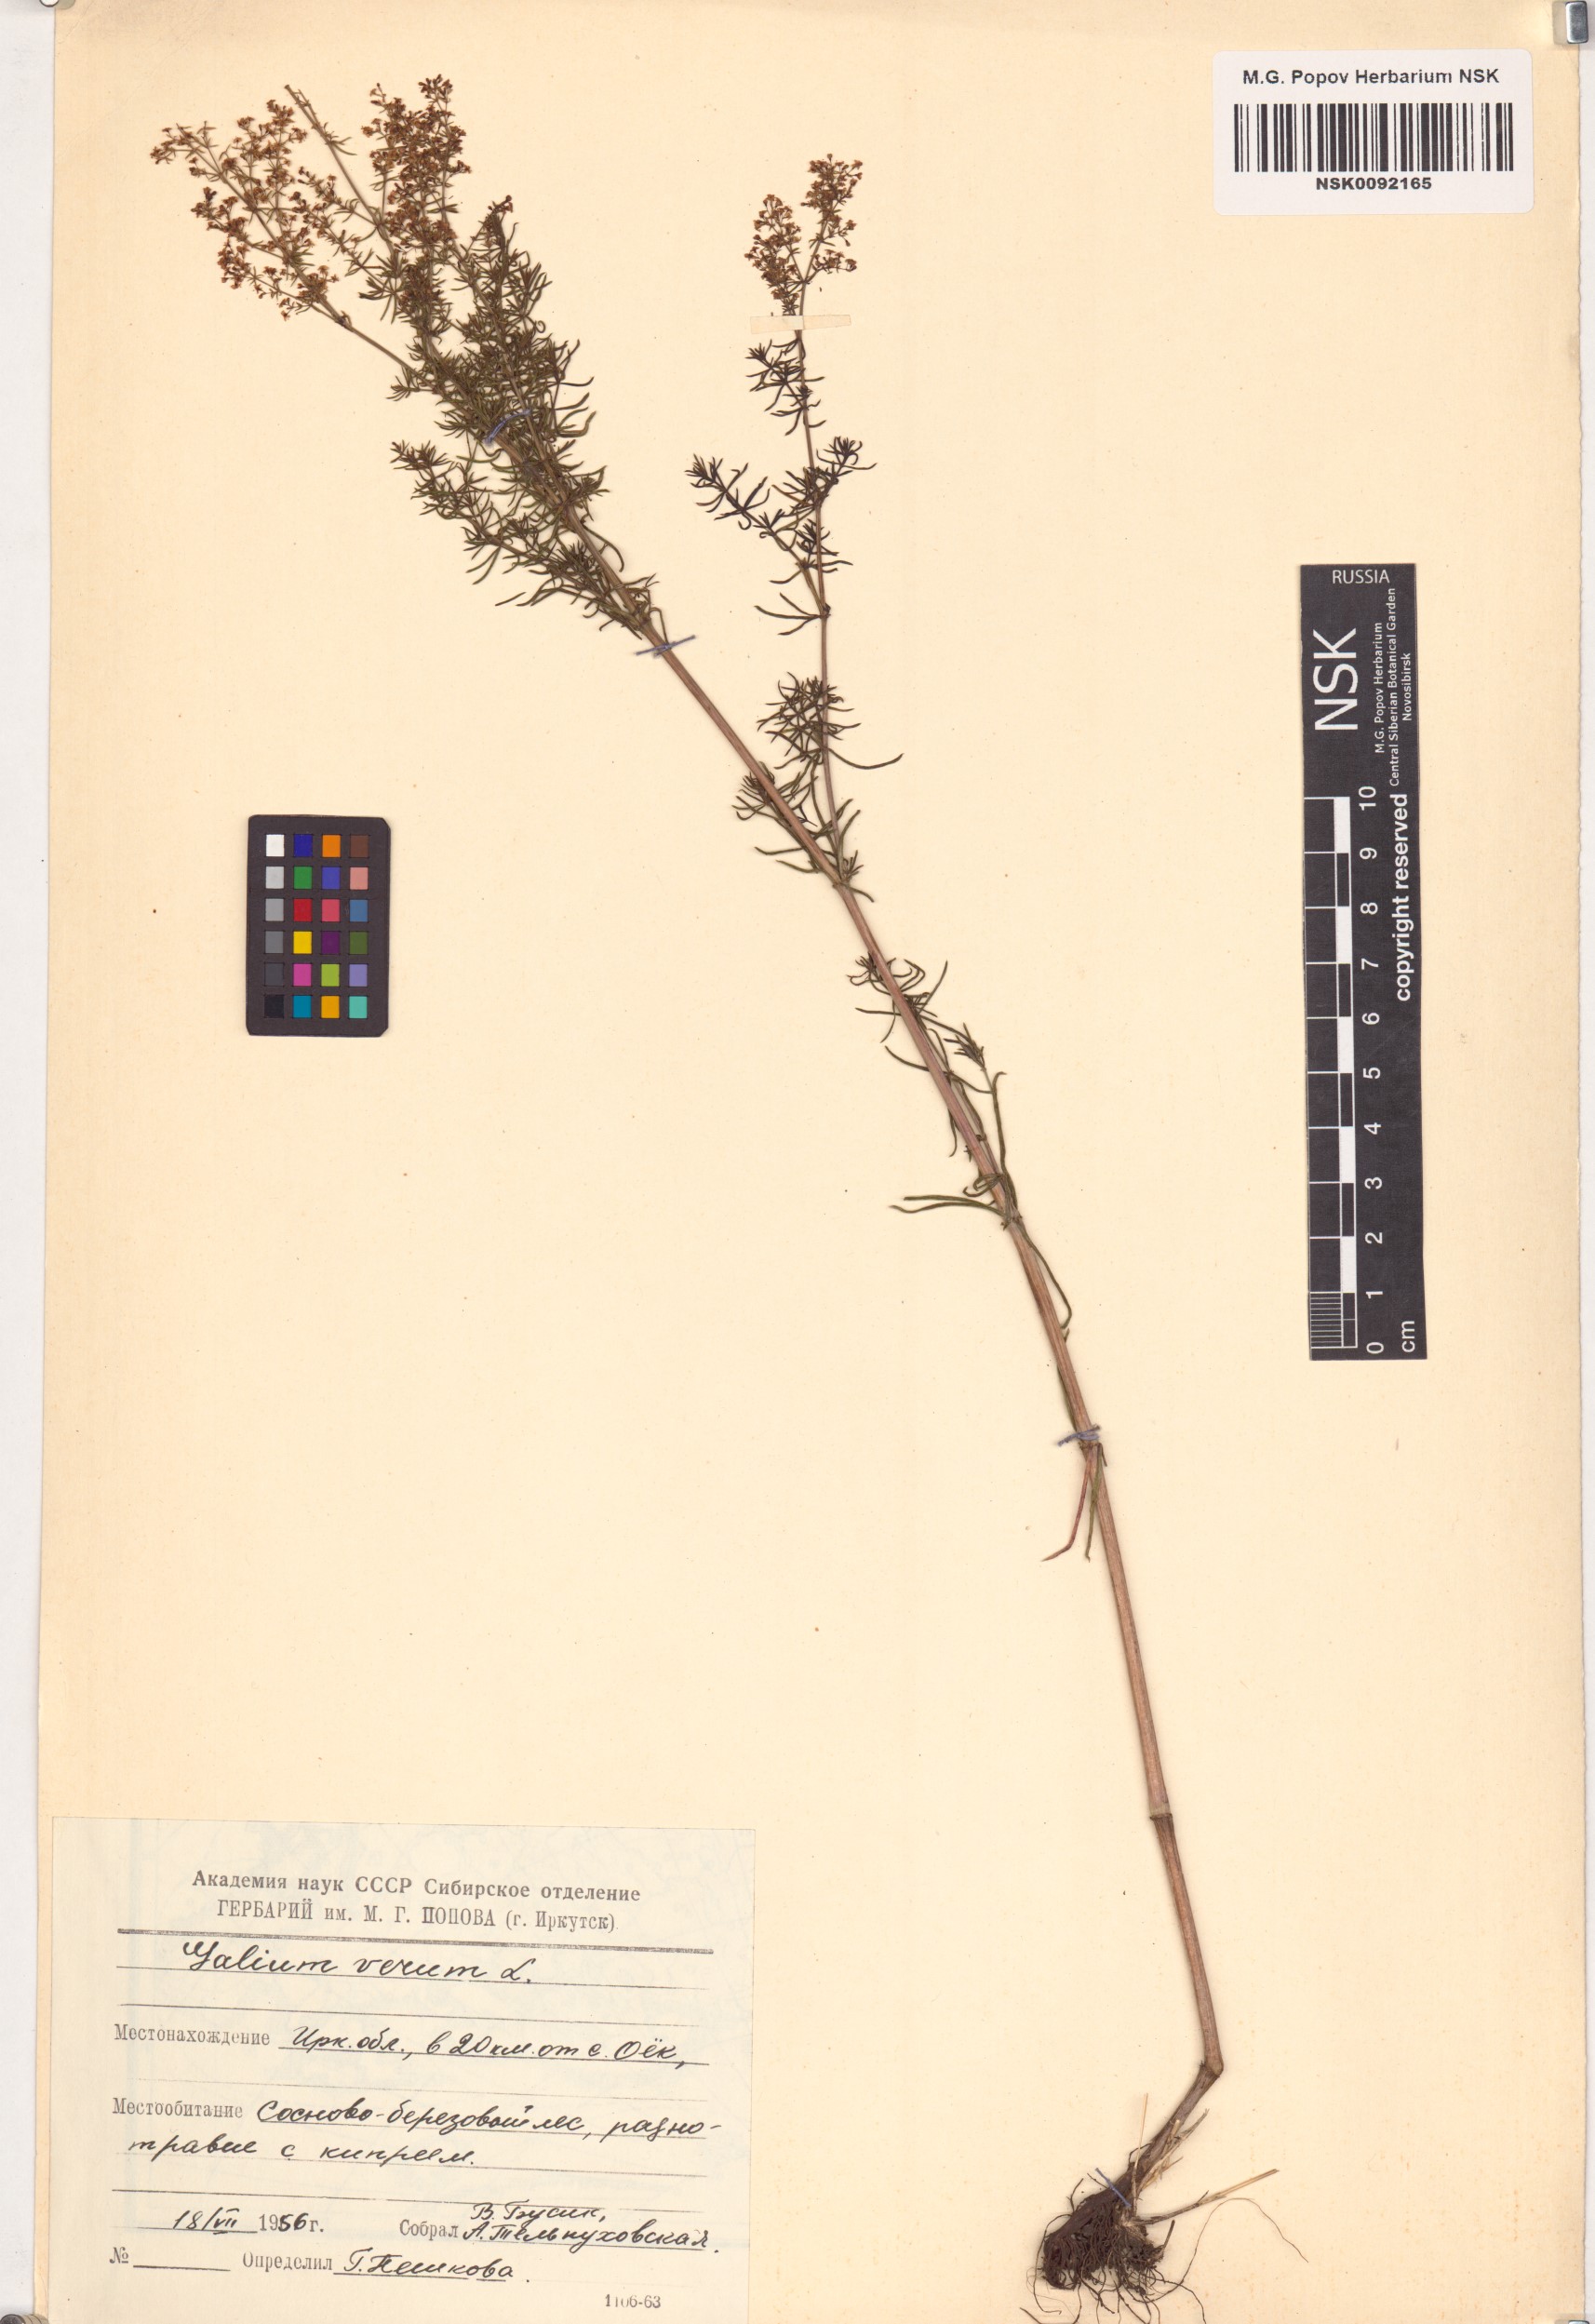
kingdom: Plantae
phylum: Tracheophyta
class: Magnoliopsida
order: Gentianales
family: Rubiaceae
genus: Galium
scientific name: Galium verum
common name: Lady's bedstraw
